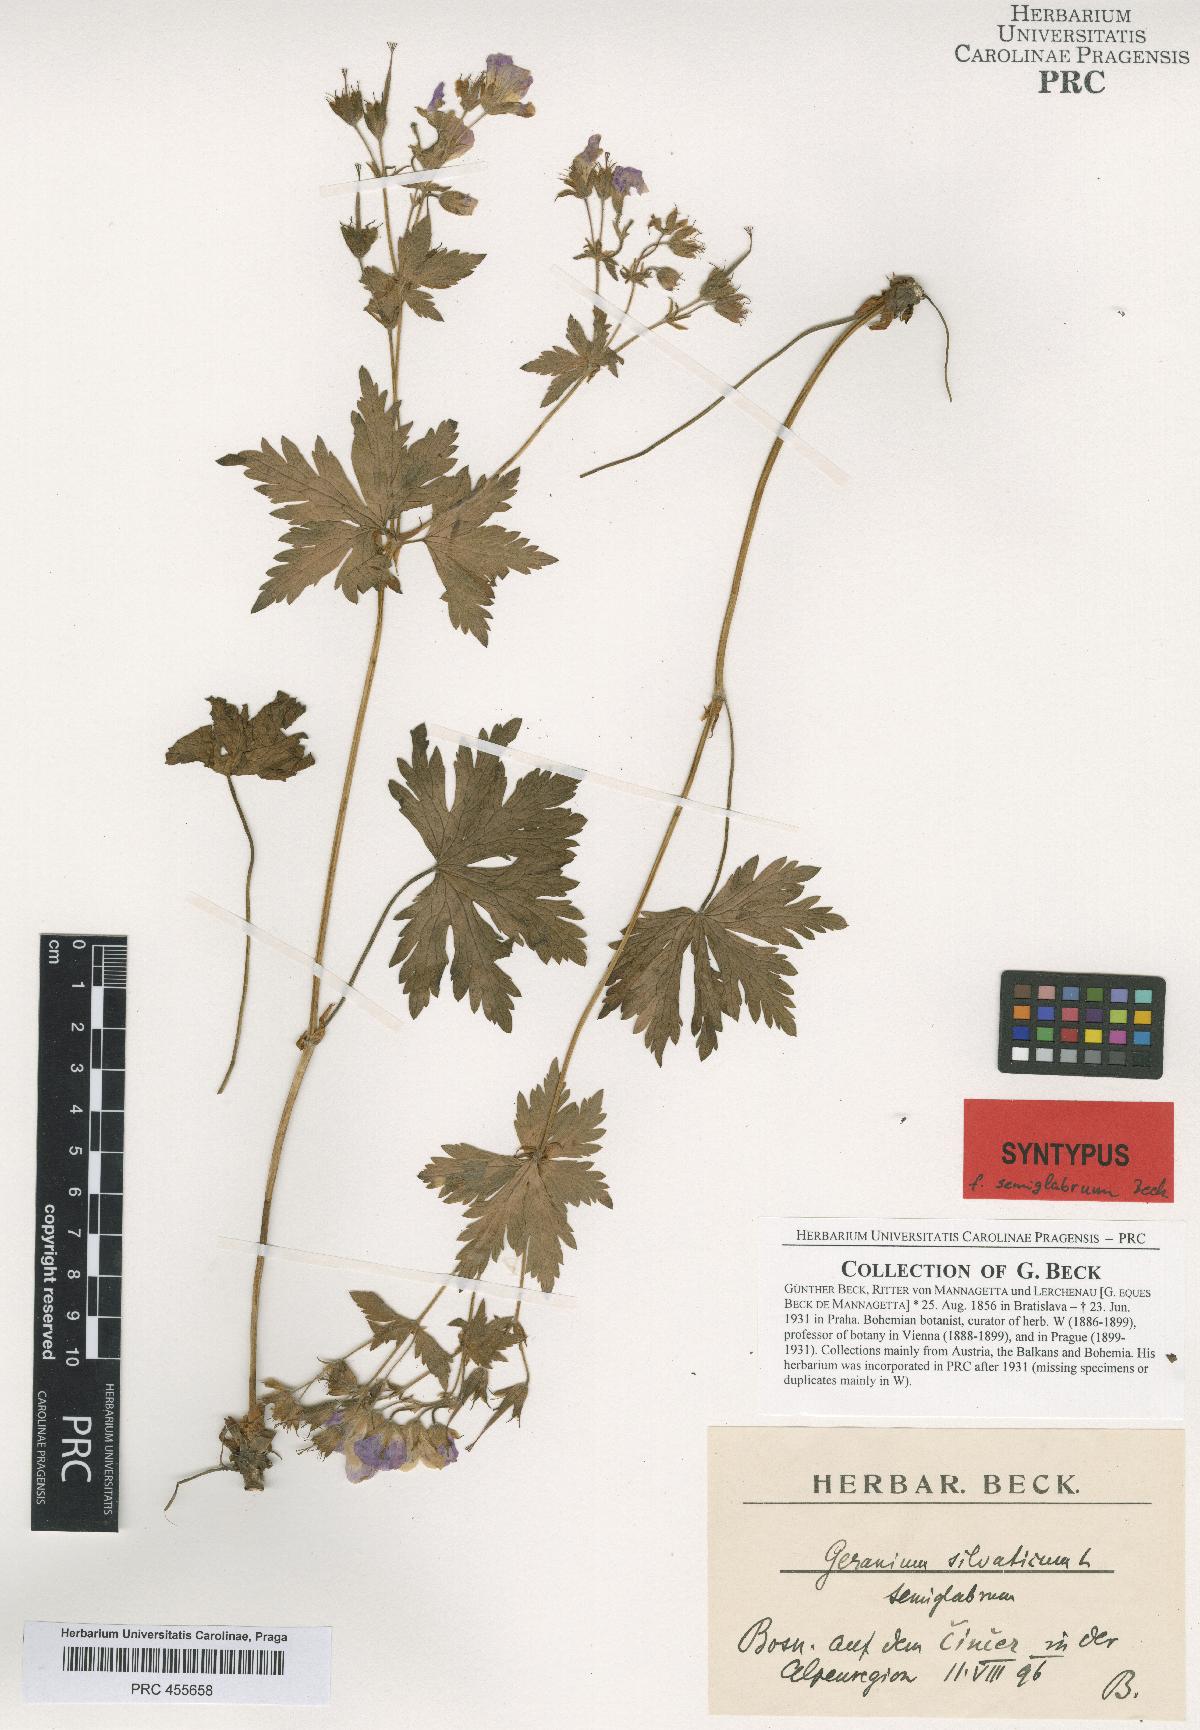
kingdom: Plantae
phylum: Tracheophyta
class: Magnoliopsida
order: Geraniales
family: Geraniaceae
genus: Geranium
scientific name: Geranium sylvaticum
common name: Wood crane's-bill
